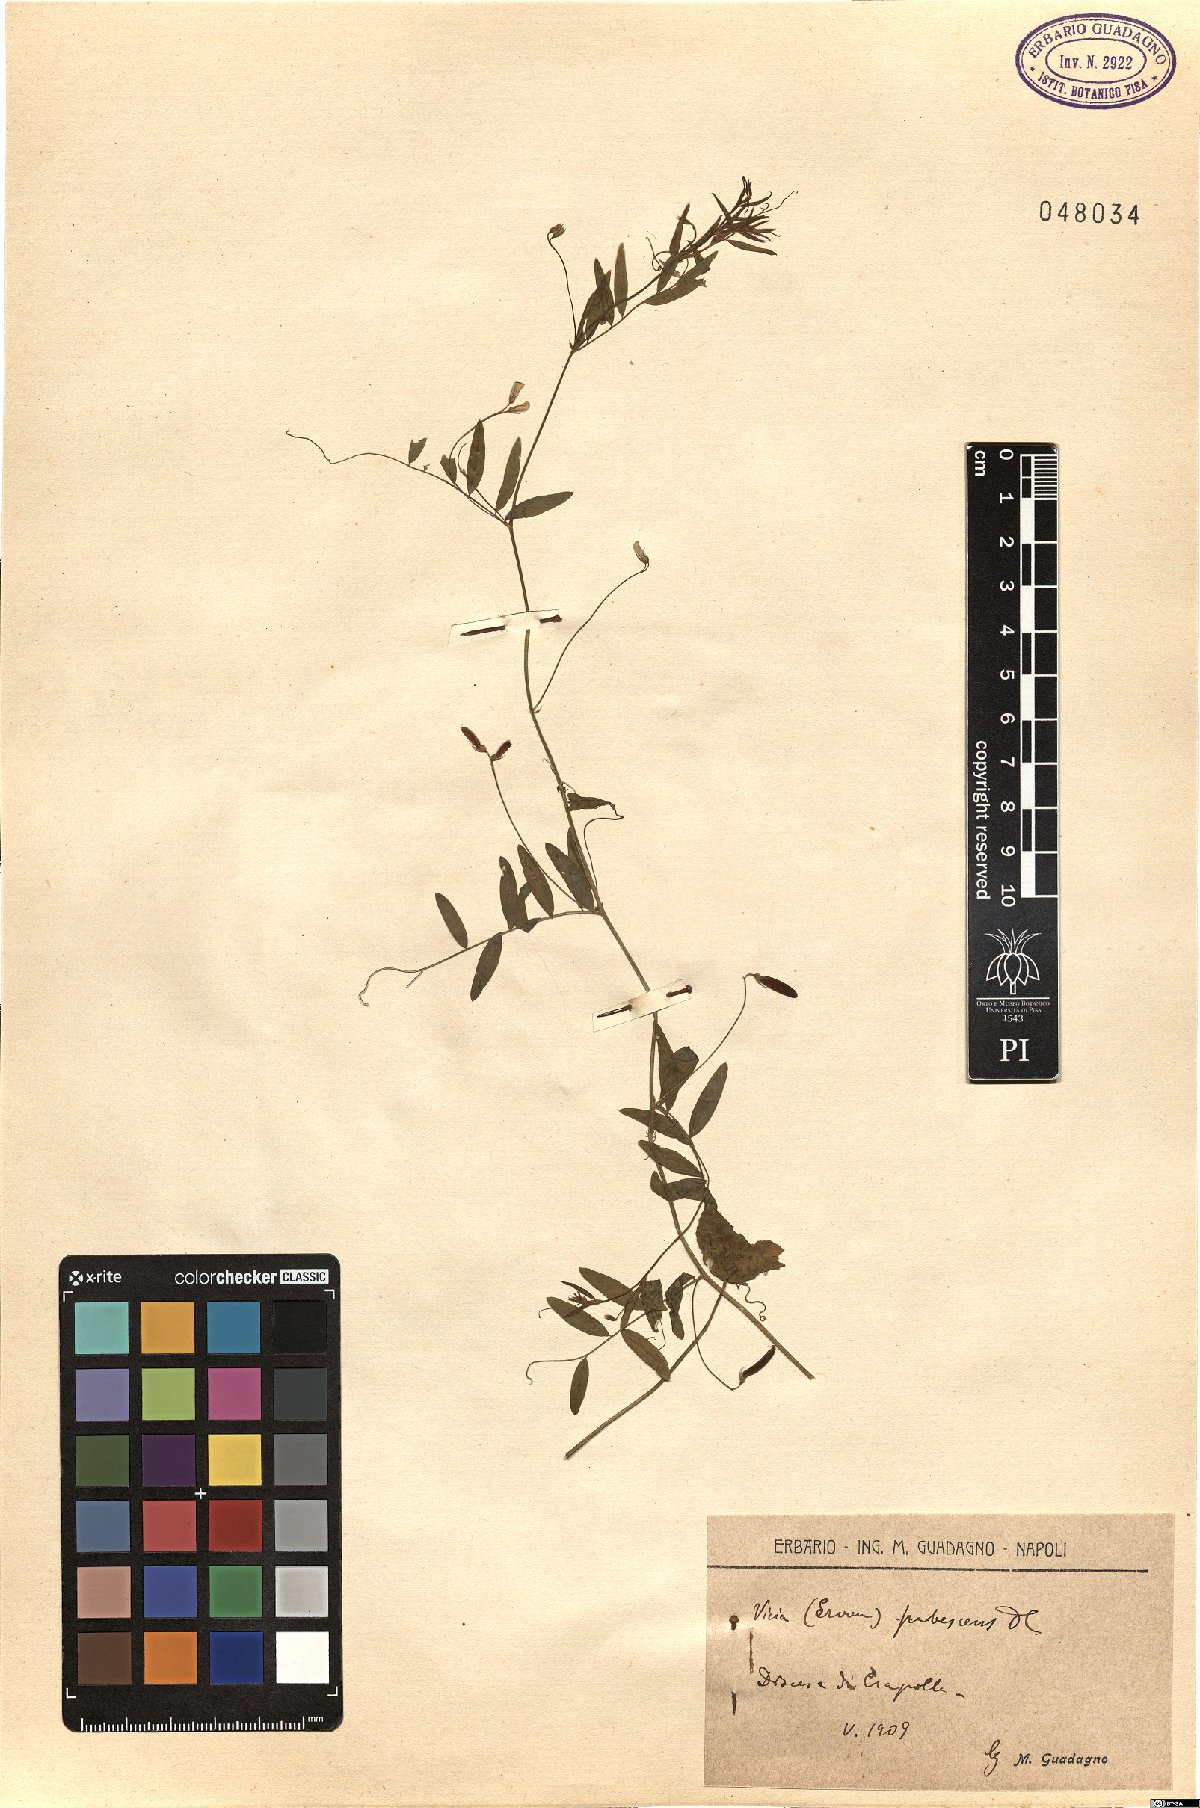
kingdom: Plantae
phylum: Tracheophyta
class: Magnoliopsida
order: Fabales
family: Fabaceae
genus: Vicia
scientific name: Vicia pubescens
